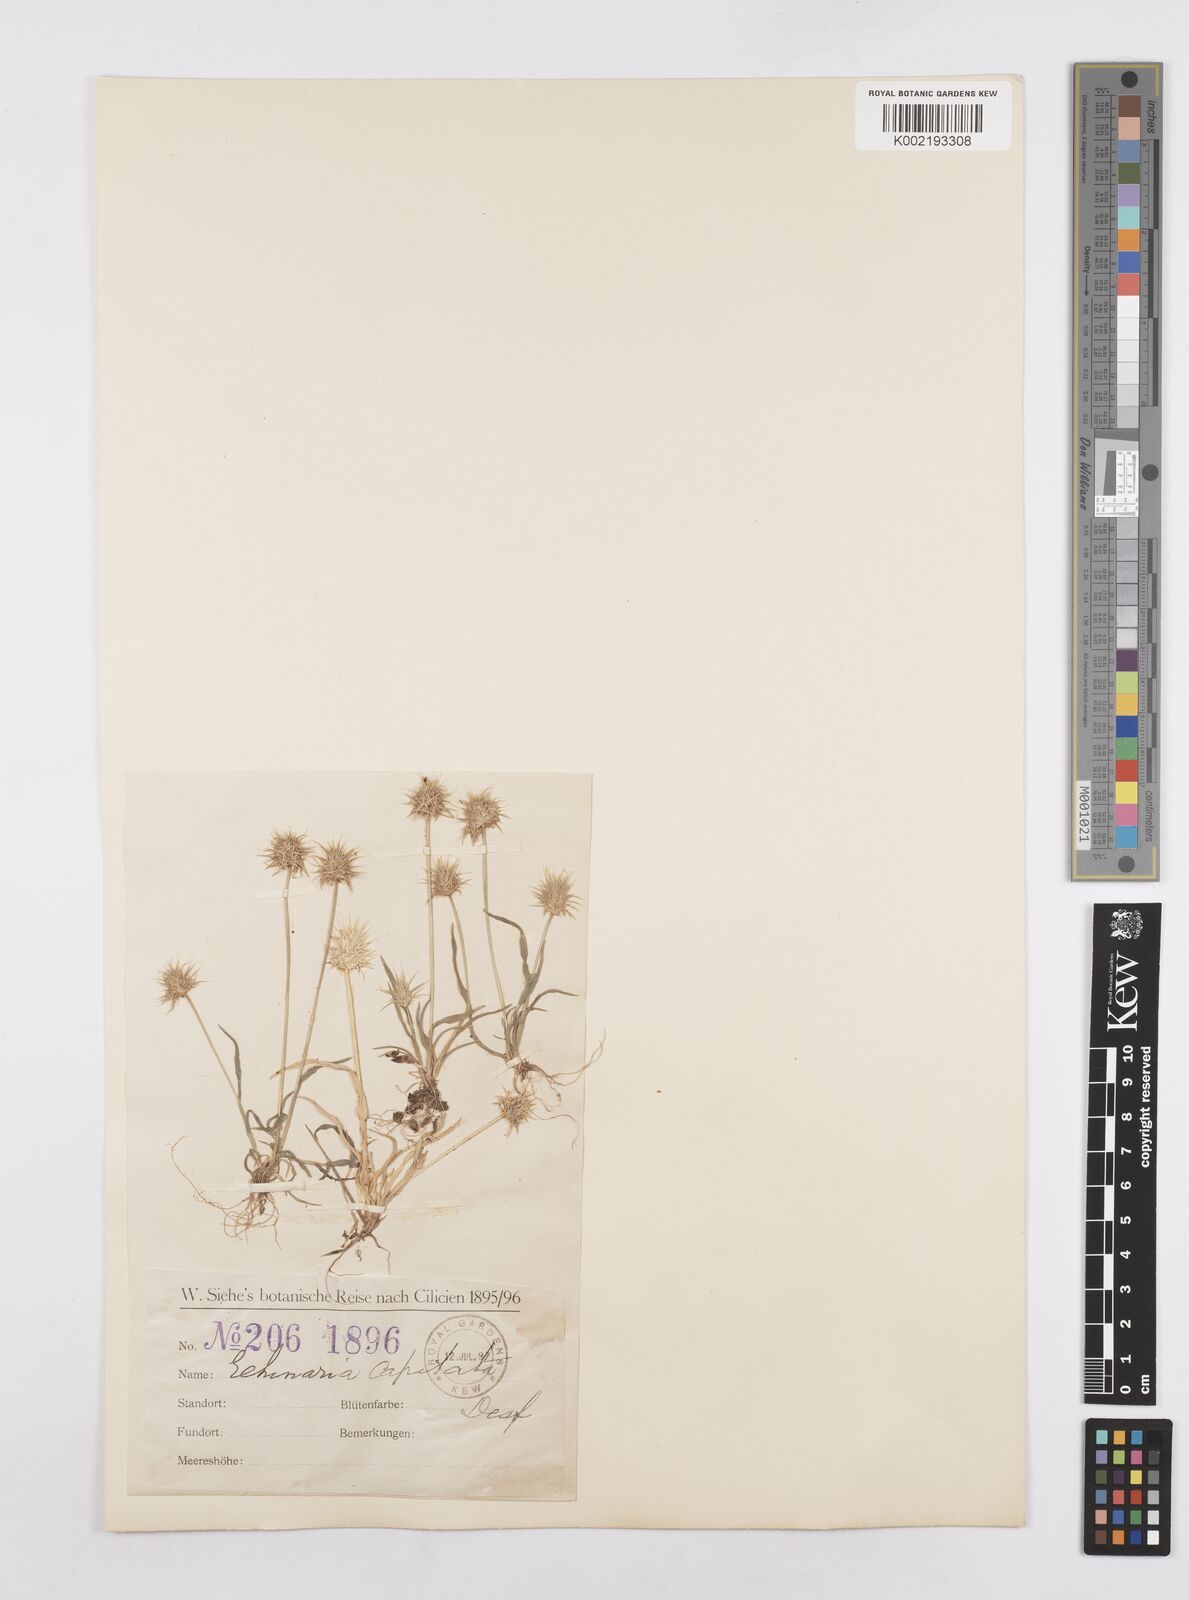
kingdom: Plantae
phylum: Tracheophyta
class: Liliopsida
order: Poales
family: Poaceae
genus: Echinaria
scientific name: Echinaria capitata
